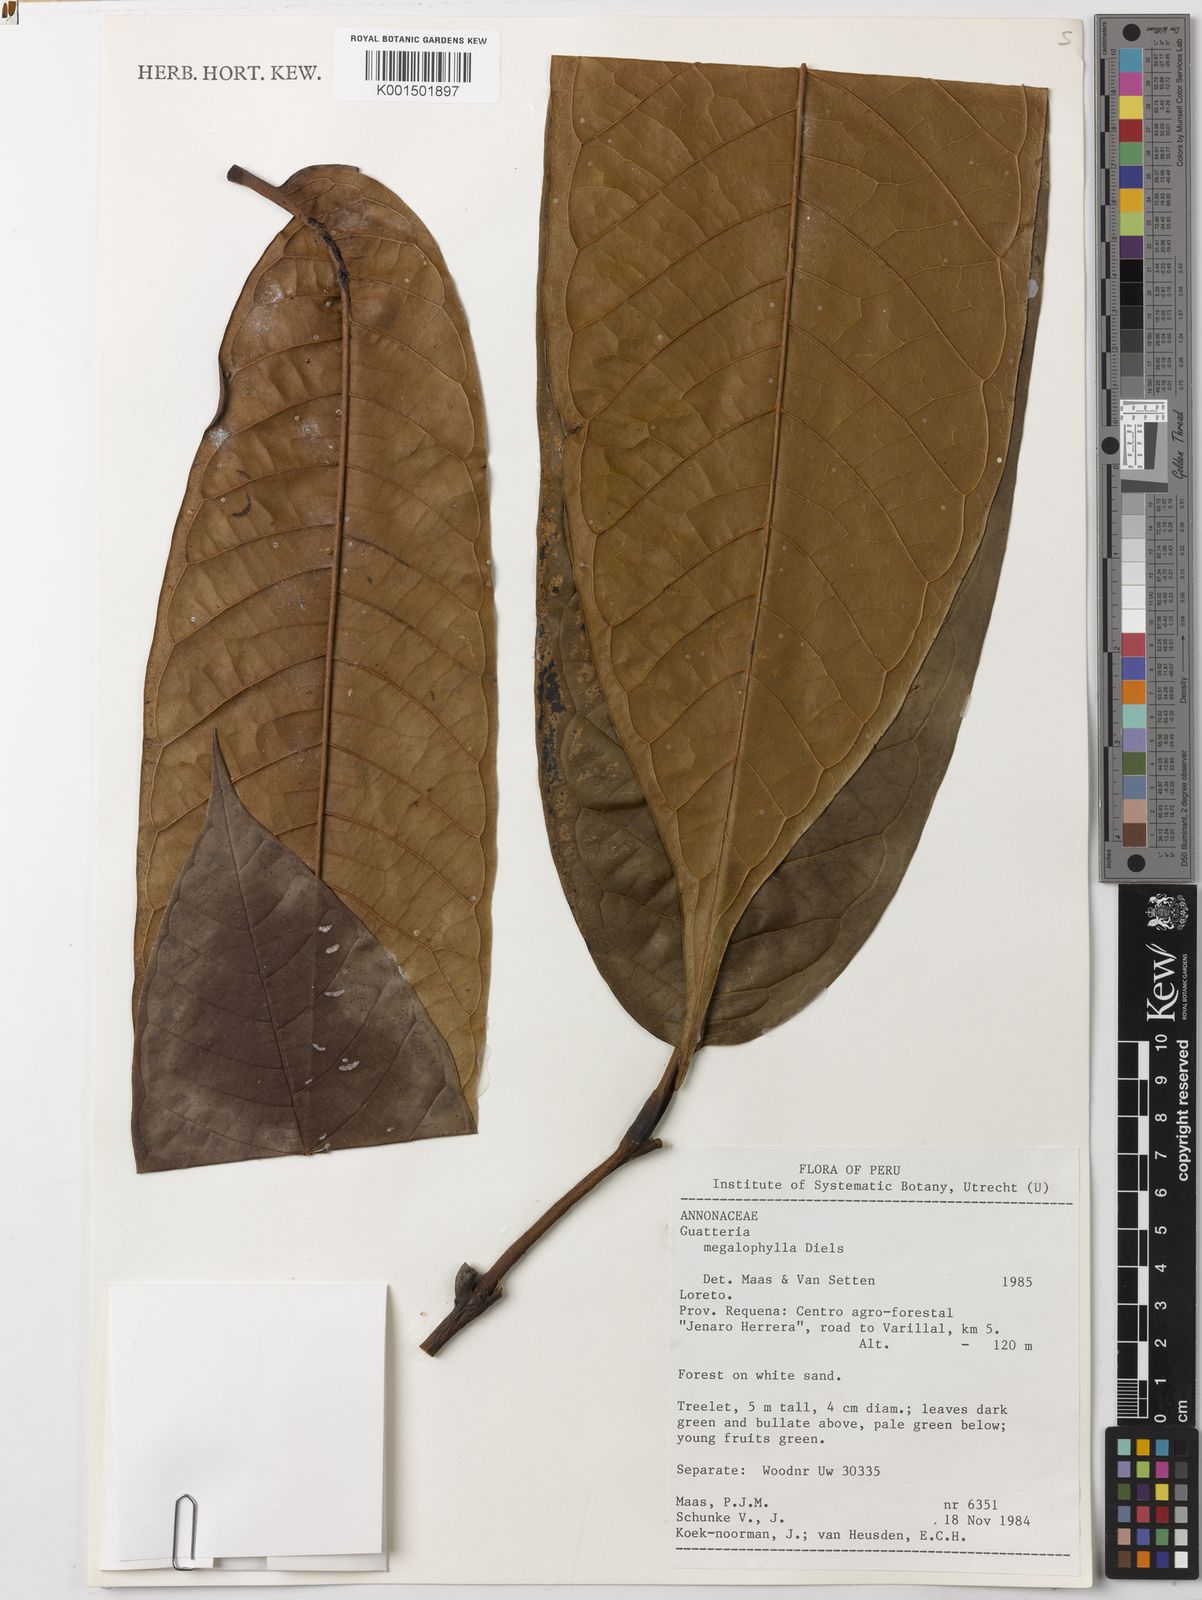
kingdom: Plantae
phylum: Tracheophyta
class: Magnoliopsida
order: Magnoliales
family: Annonaceae
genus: Guatteria
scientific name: Guatteria megalophylla
